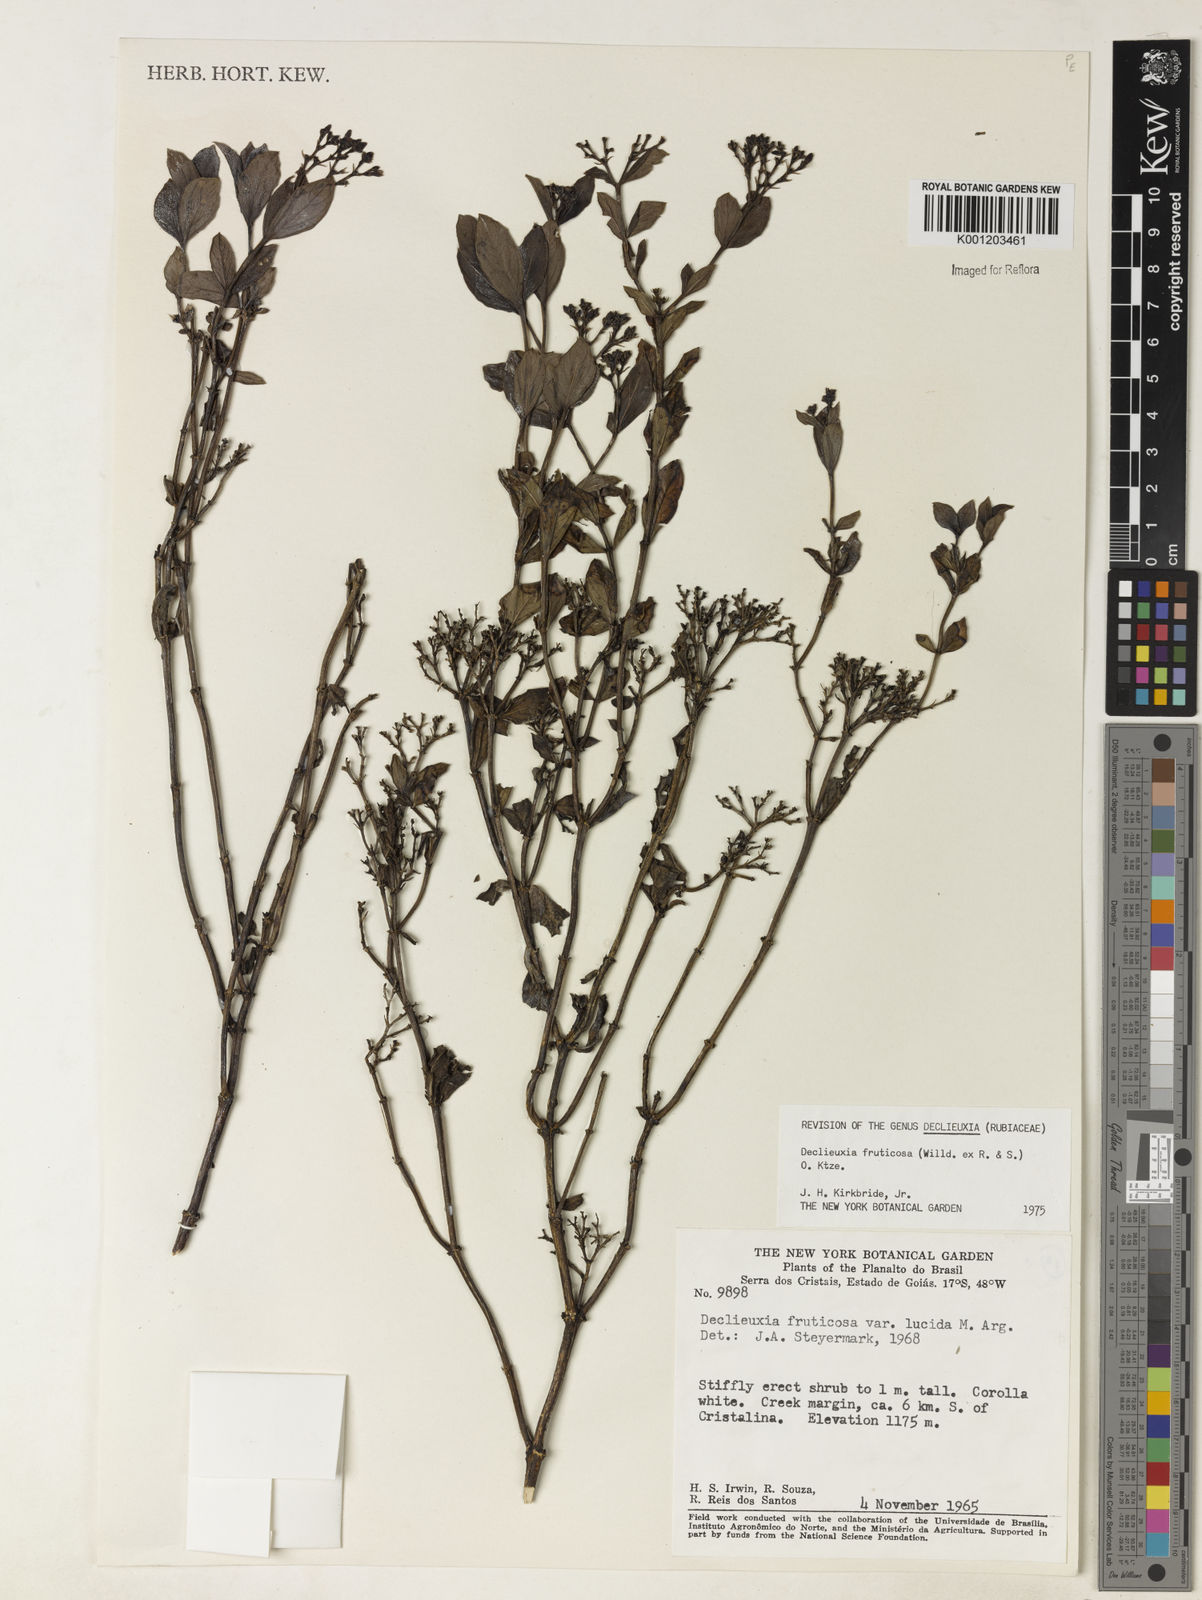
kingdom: Plantae
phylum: Tracheophyta
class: Magnoliopsida
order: Gentianales
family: Rubiaceae
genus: Declieuxia
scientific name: Declieuxia fruticosa
